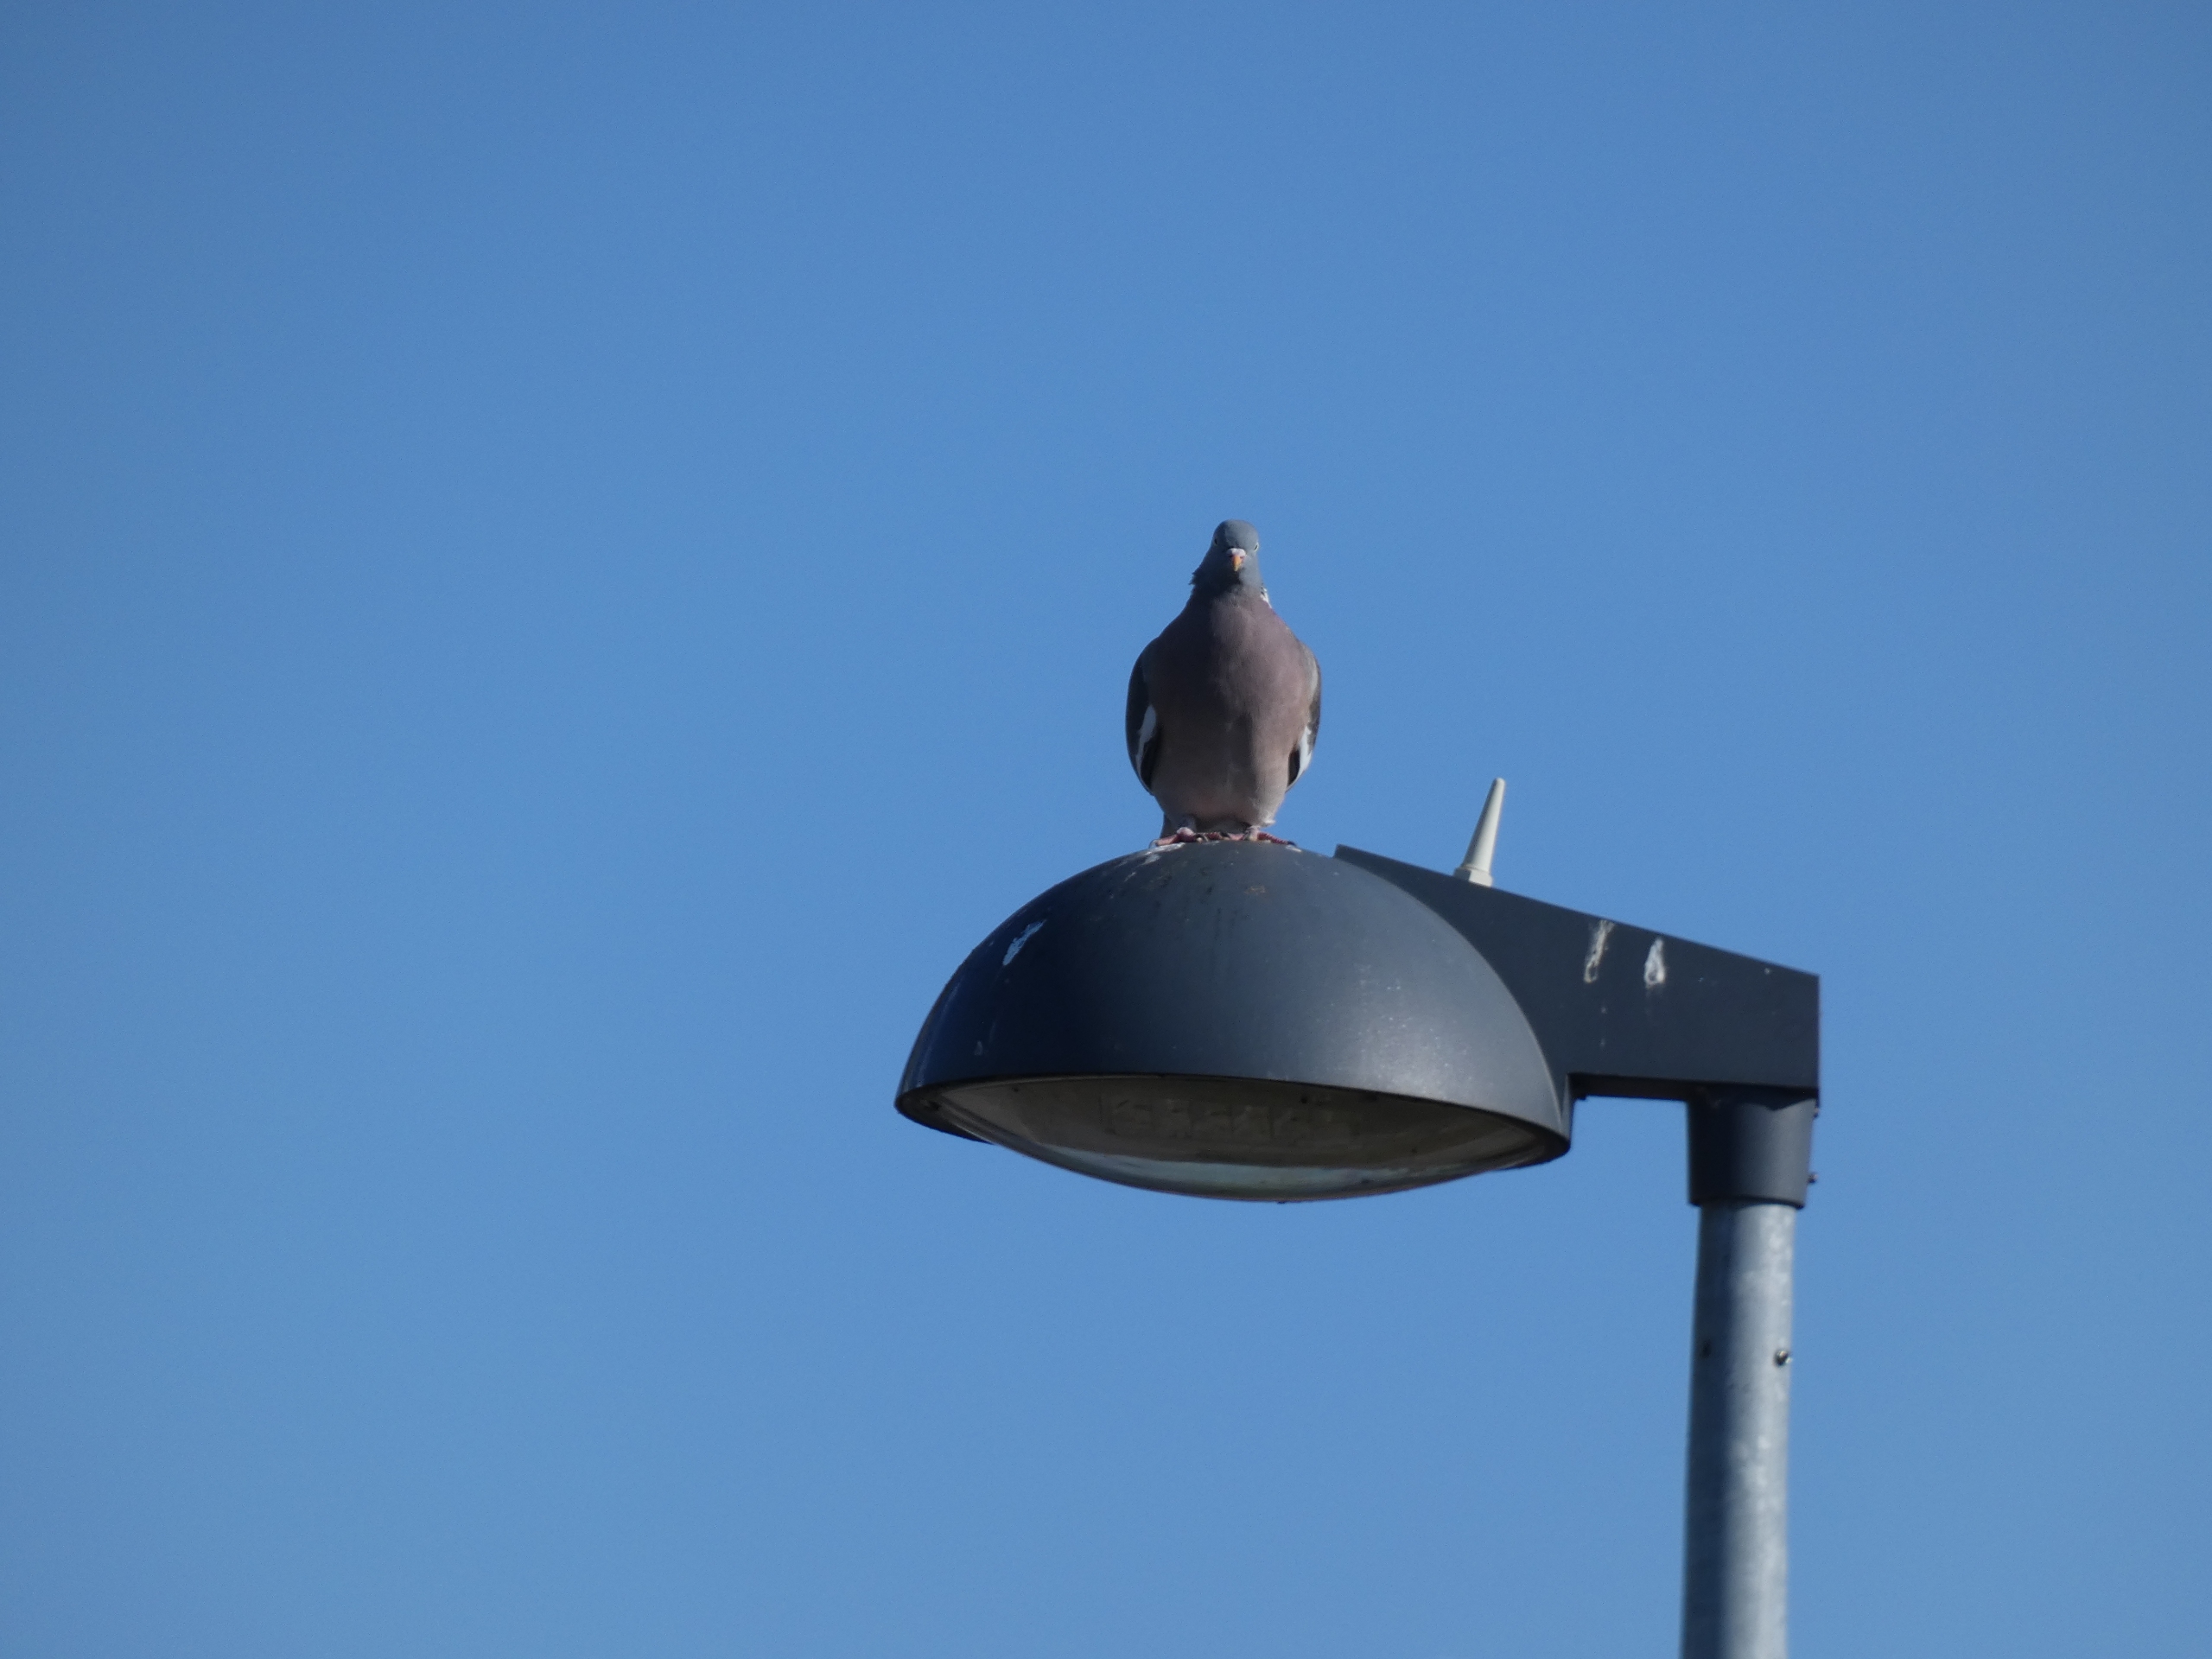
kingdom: Animalia
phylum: Chordata
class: Aves
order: Columbiformes
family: Columbidae
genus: Columba
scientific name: Columba palumbus
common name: Ringdue
